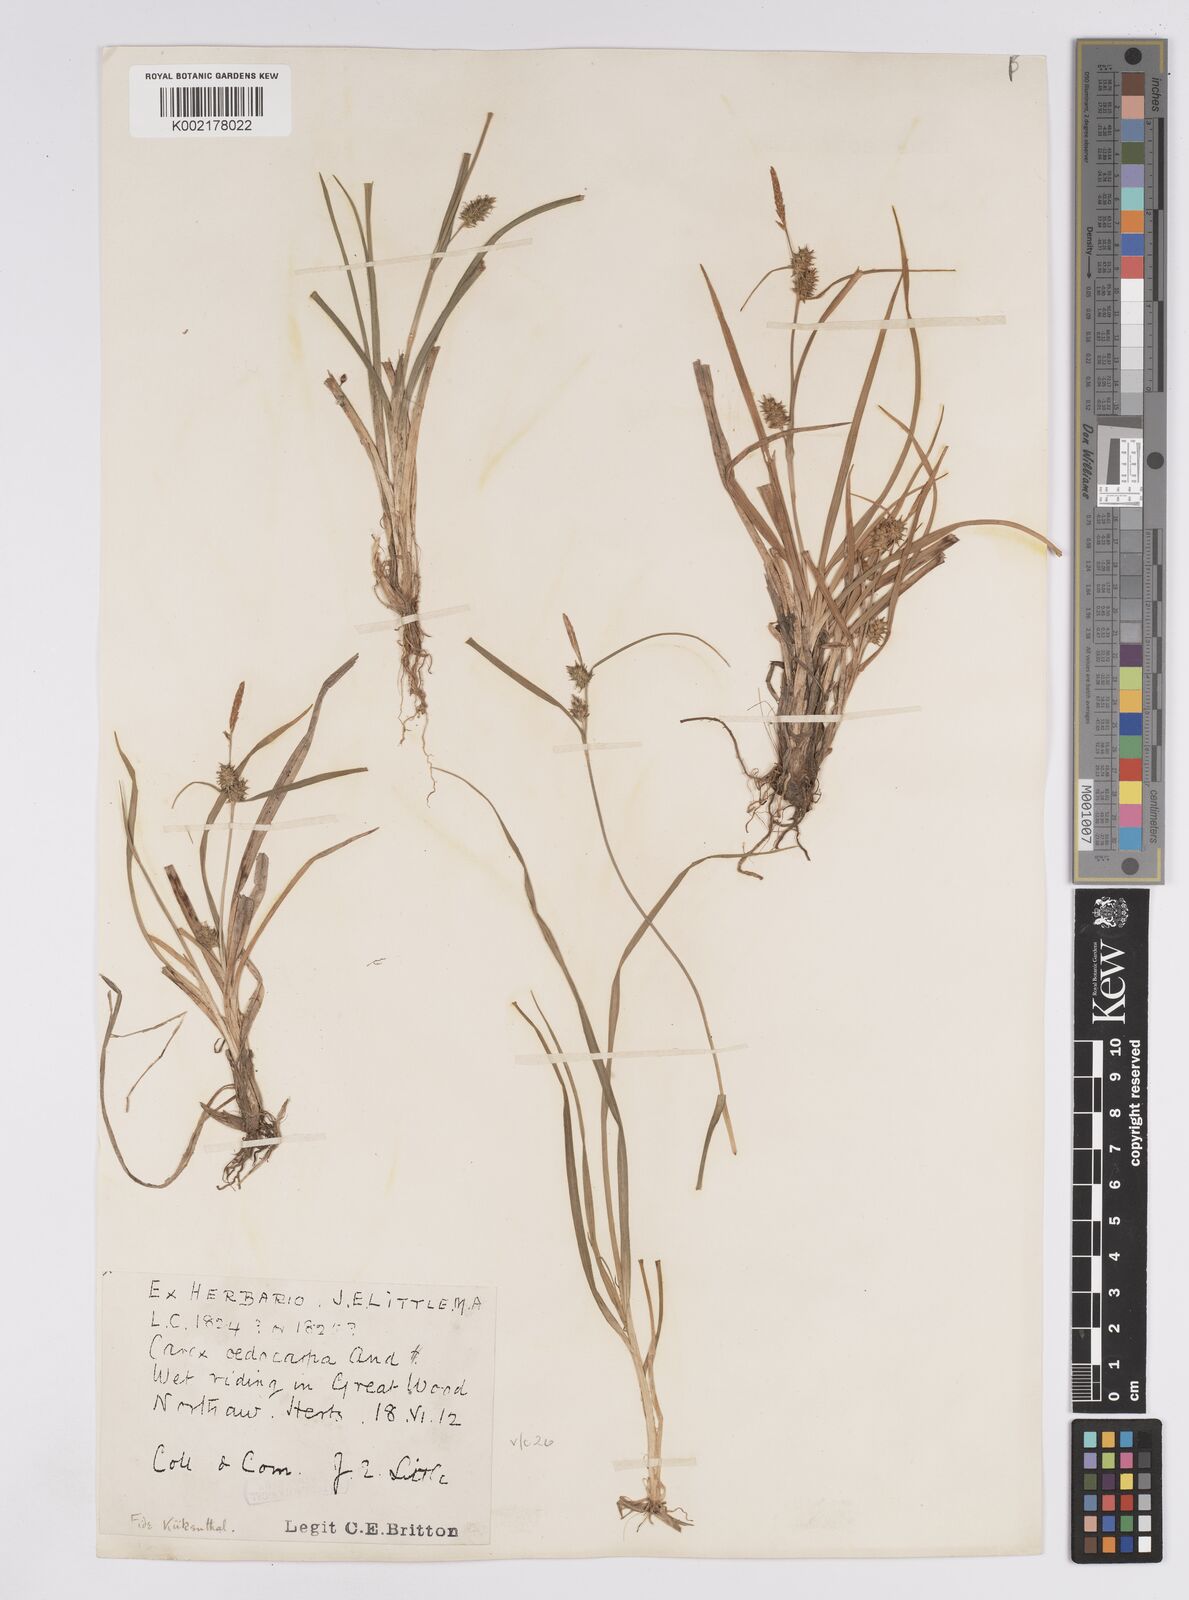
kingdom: Plantae
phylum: Tracheophyta
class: Liliopsida
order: Poales
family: Cyperaceae
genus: Carex
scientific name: Carex demissa
